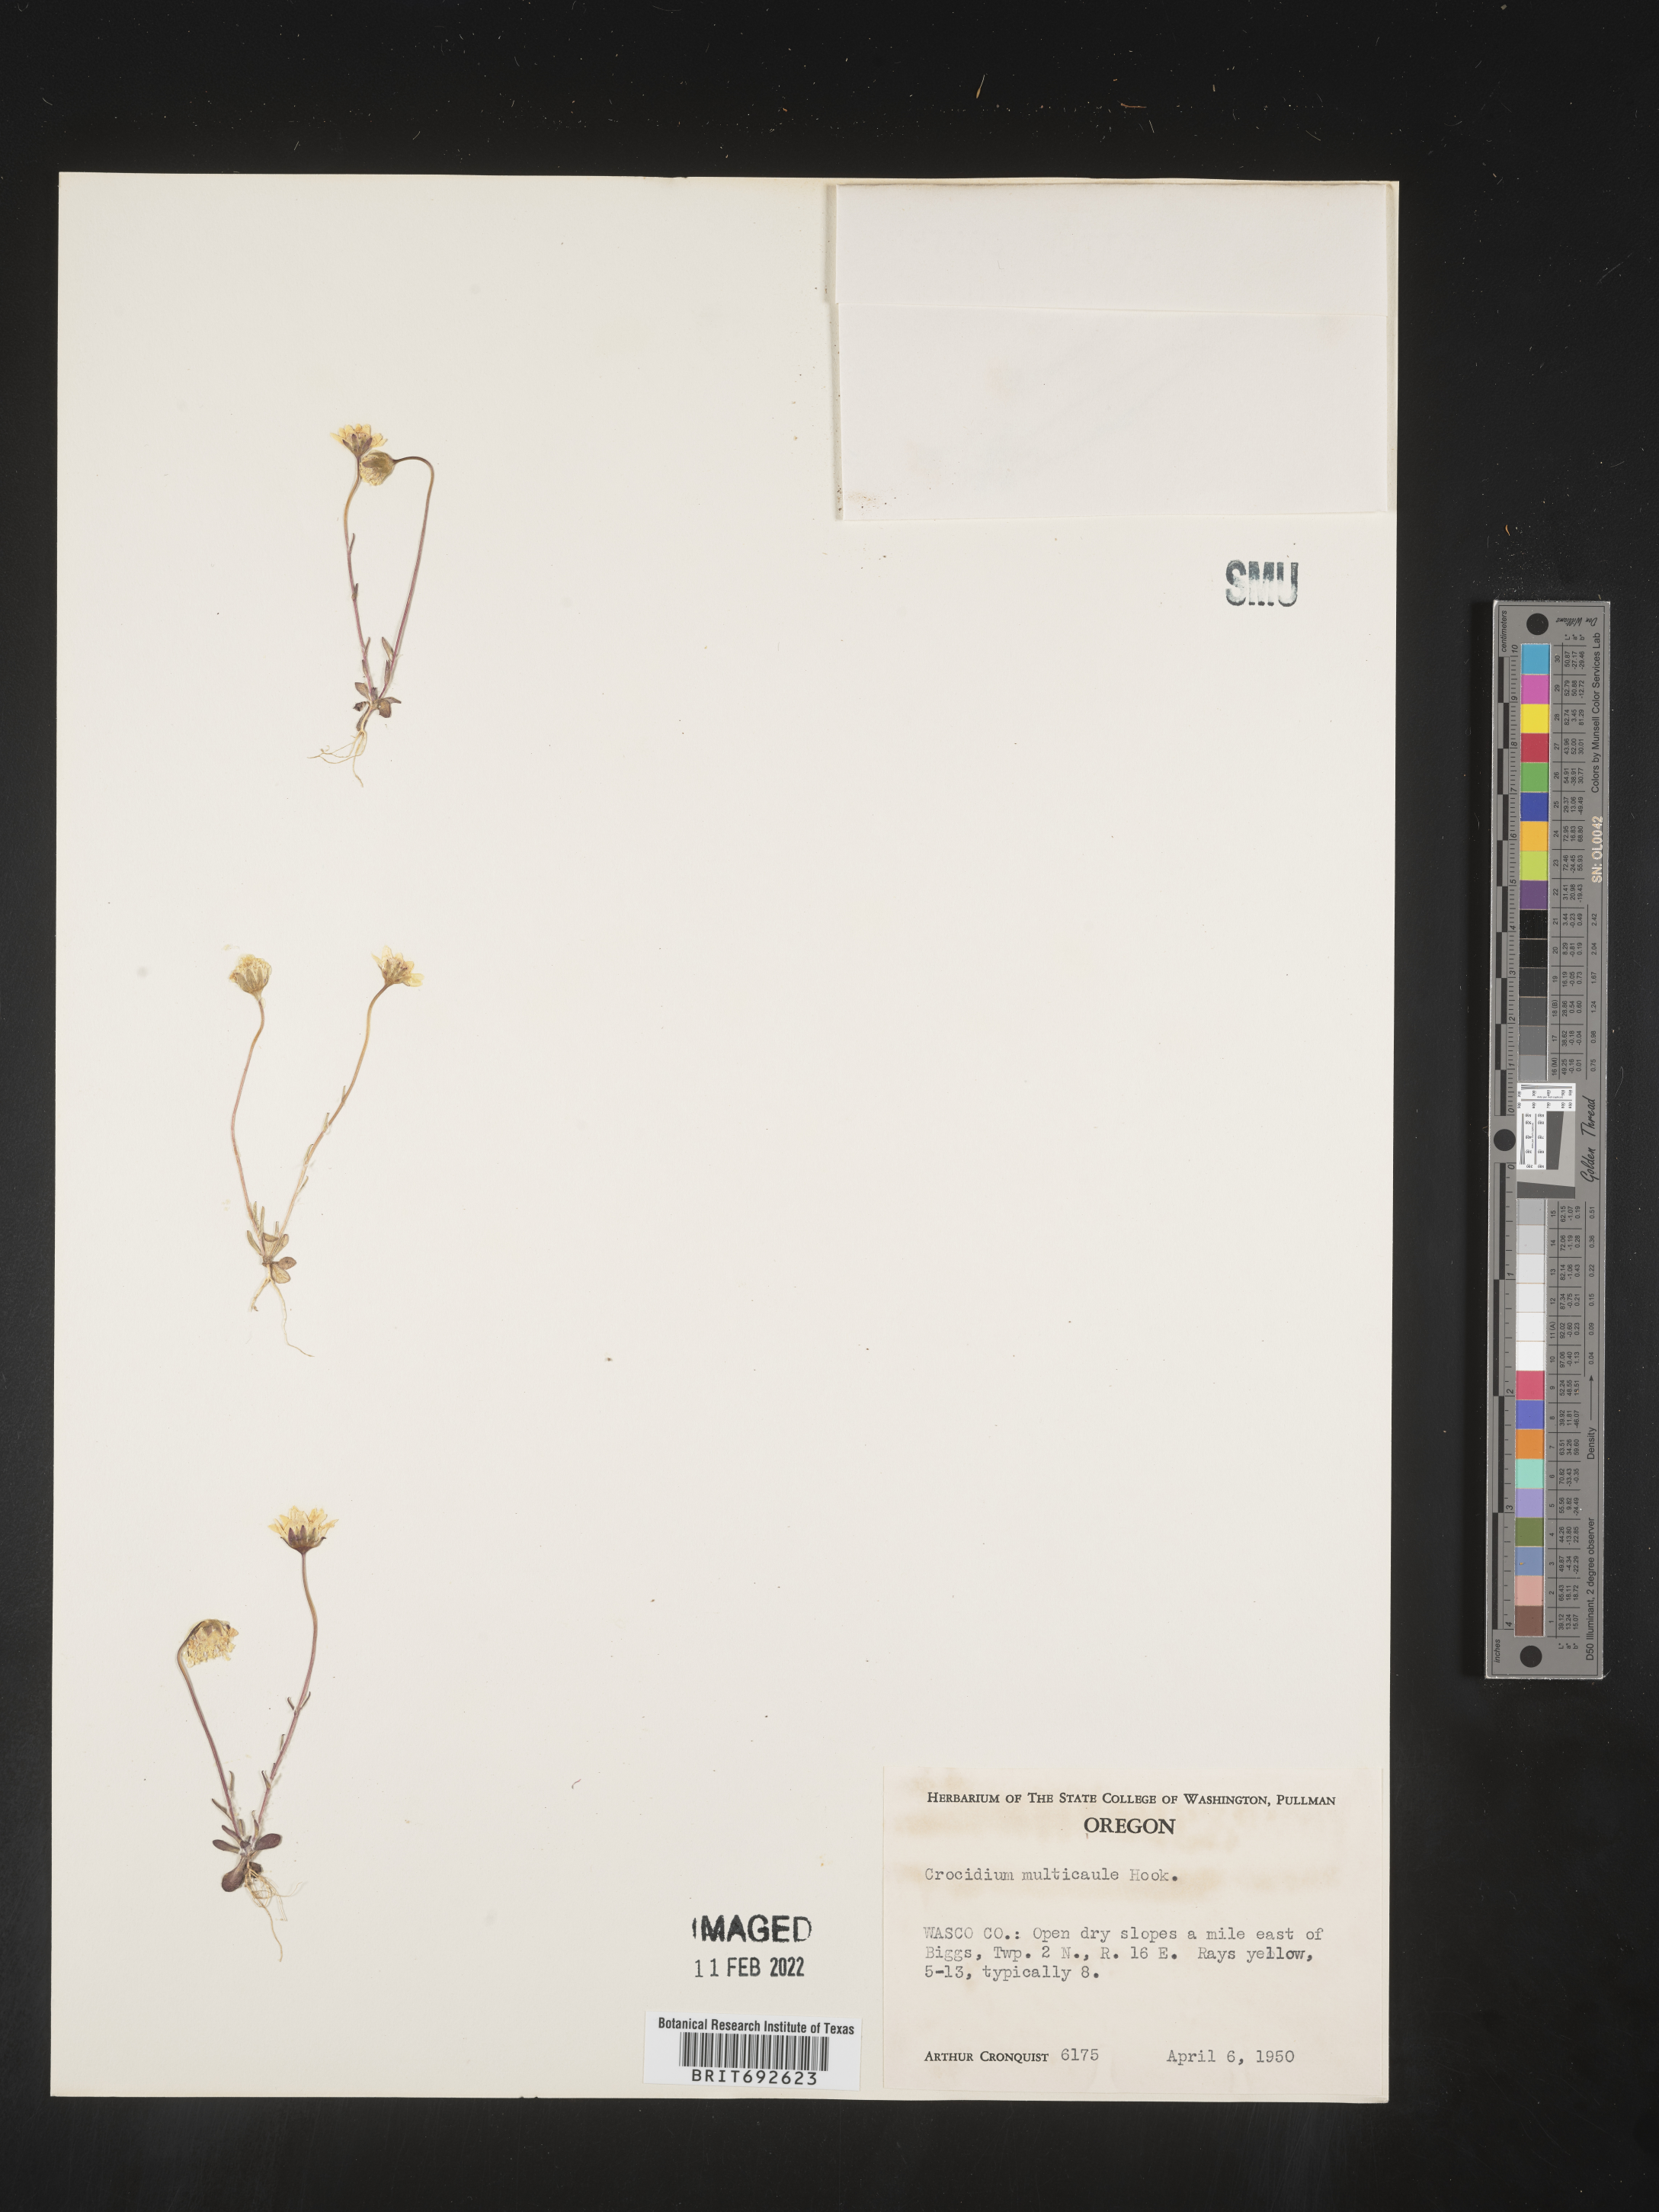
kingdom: Plantae
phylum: Tracheophyta
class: Magnoliopsida
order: Asterales
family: Asteraceae
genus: Crocidium
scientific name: Crocidium
